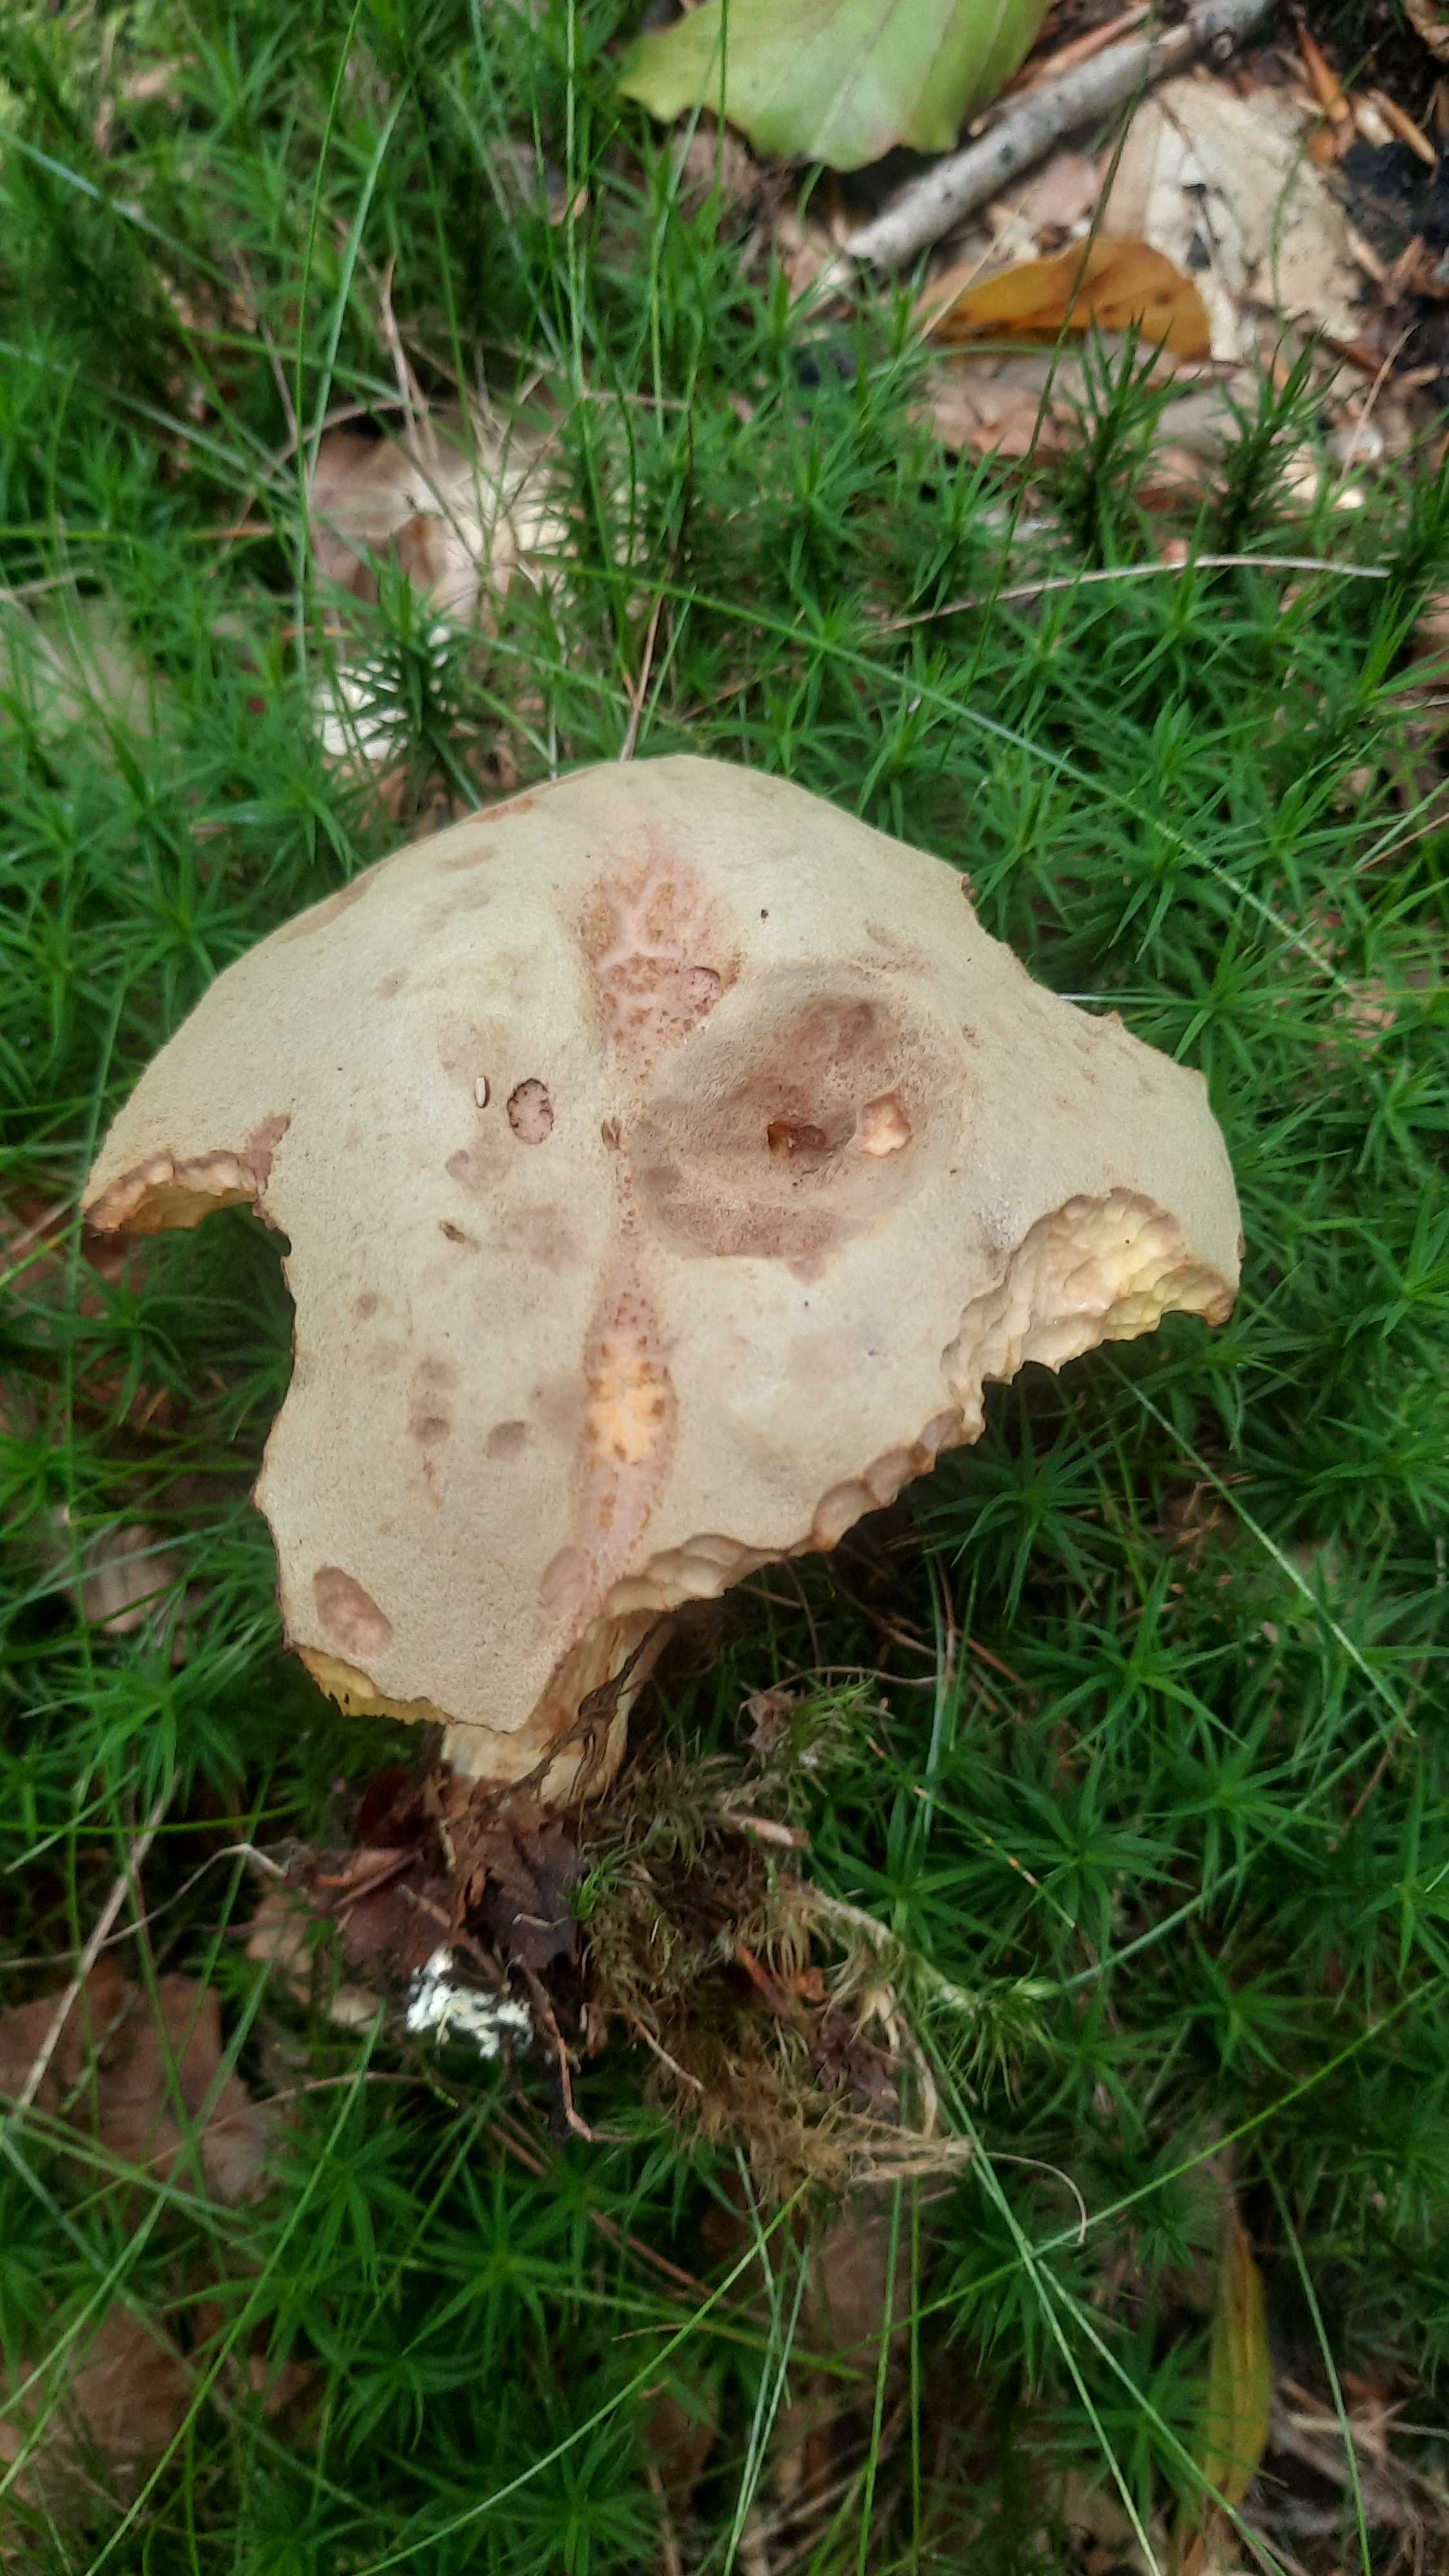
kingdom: Fungi
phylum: Basidiomycota
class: Agaricomycetes
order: Boletales
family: Boletaceae
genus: Xerocomus
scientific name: Xerocomus subtomentosus
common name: filtet rørhat
